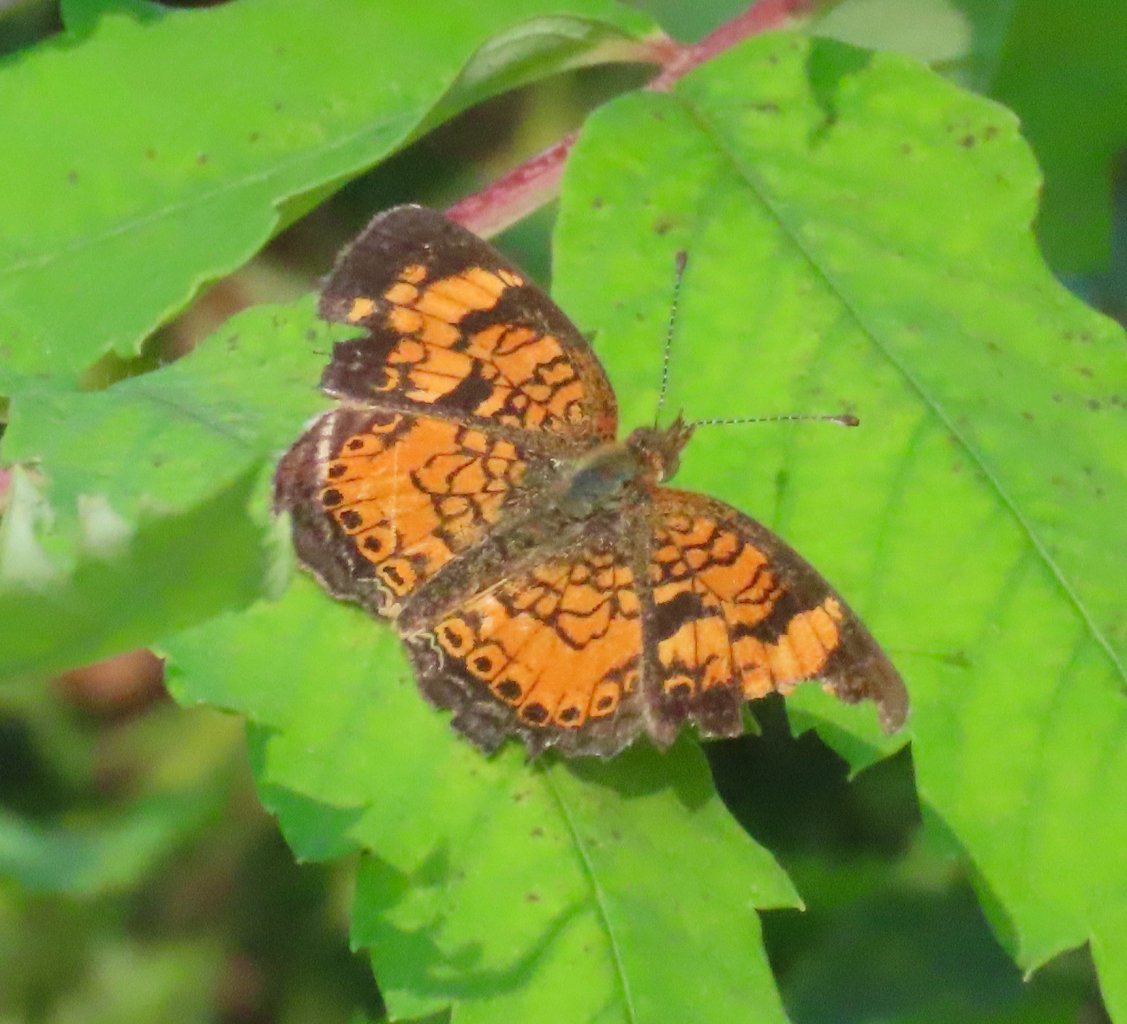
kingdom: Animalia
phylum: Arthropoda
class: Insecta
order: Lepidoptera
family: Nymphalidae
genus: Phyciodes
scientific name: Phyciodes tharos
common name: Pearl Crescent
